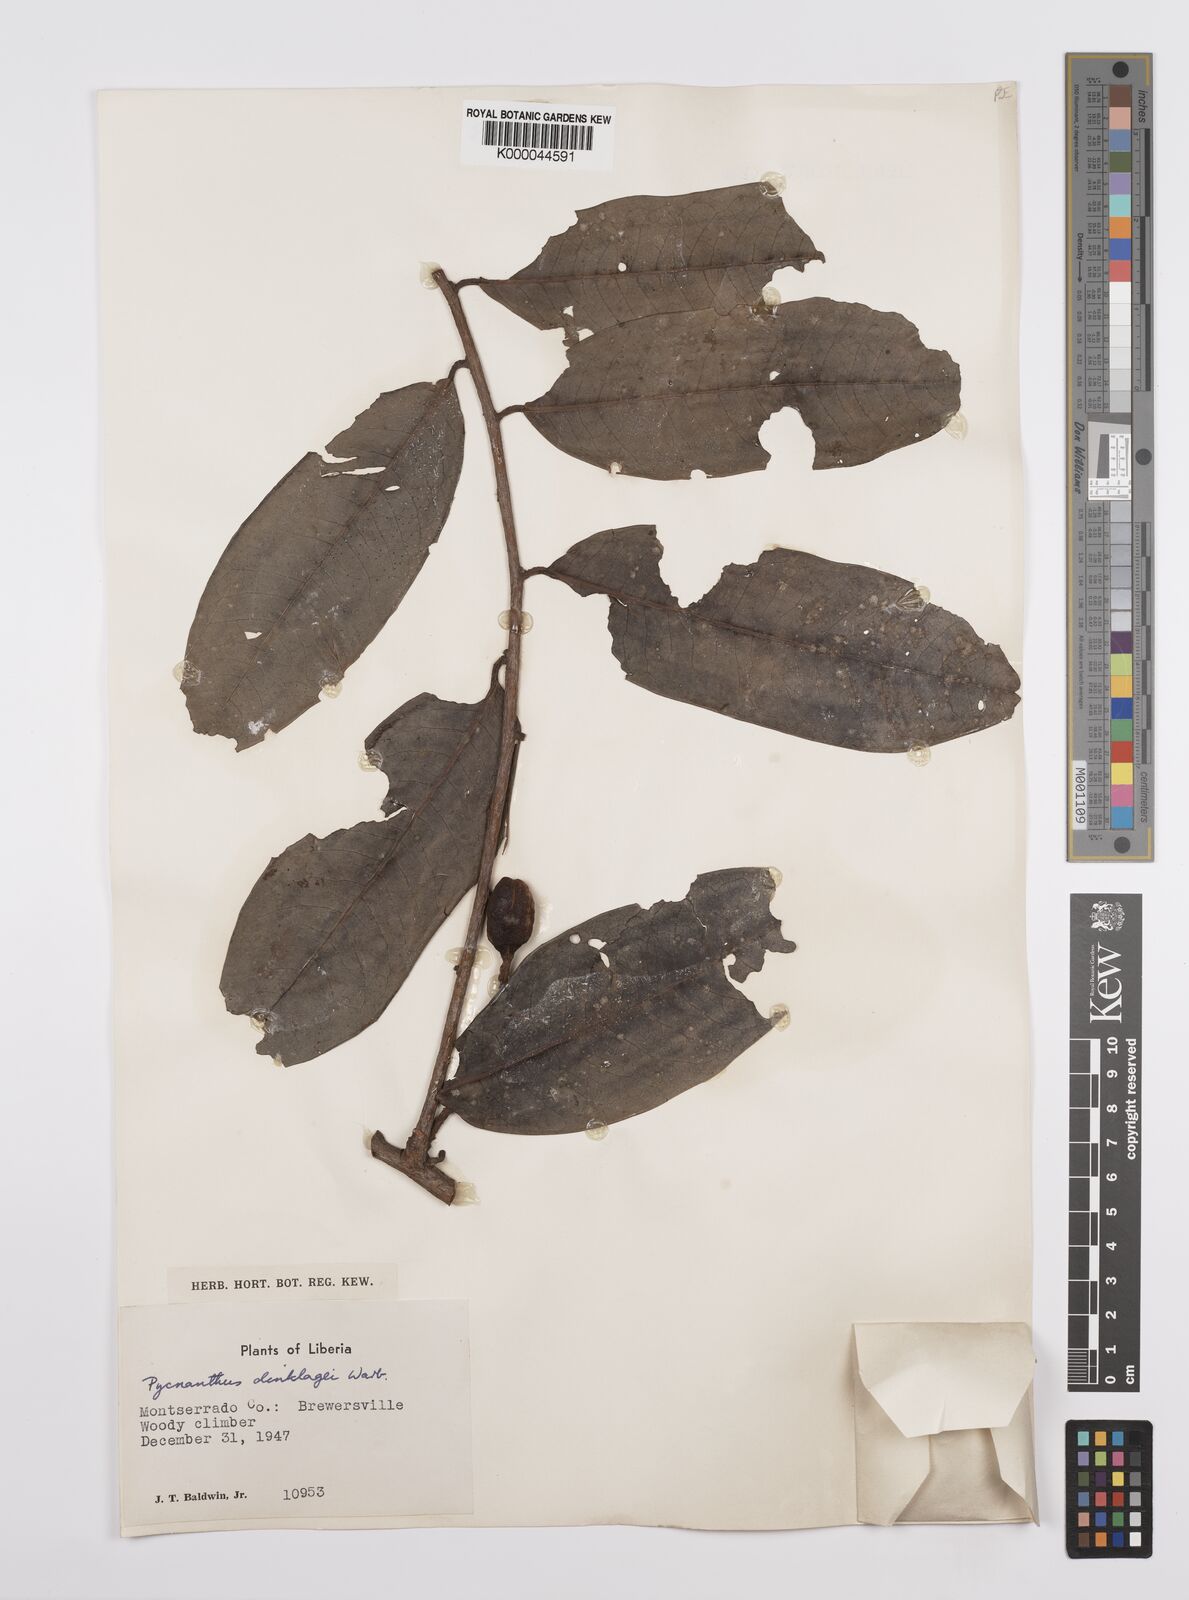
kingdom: Plantae
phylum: Tracheophyta
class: Magnoliopsida
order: Magnoliales
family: Myristicaceae
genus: Pycnanthus
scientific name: Pycnanthus dinklagei
